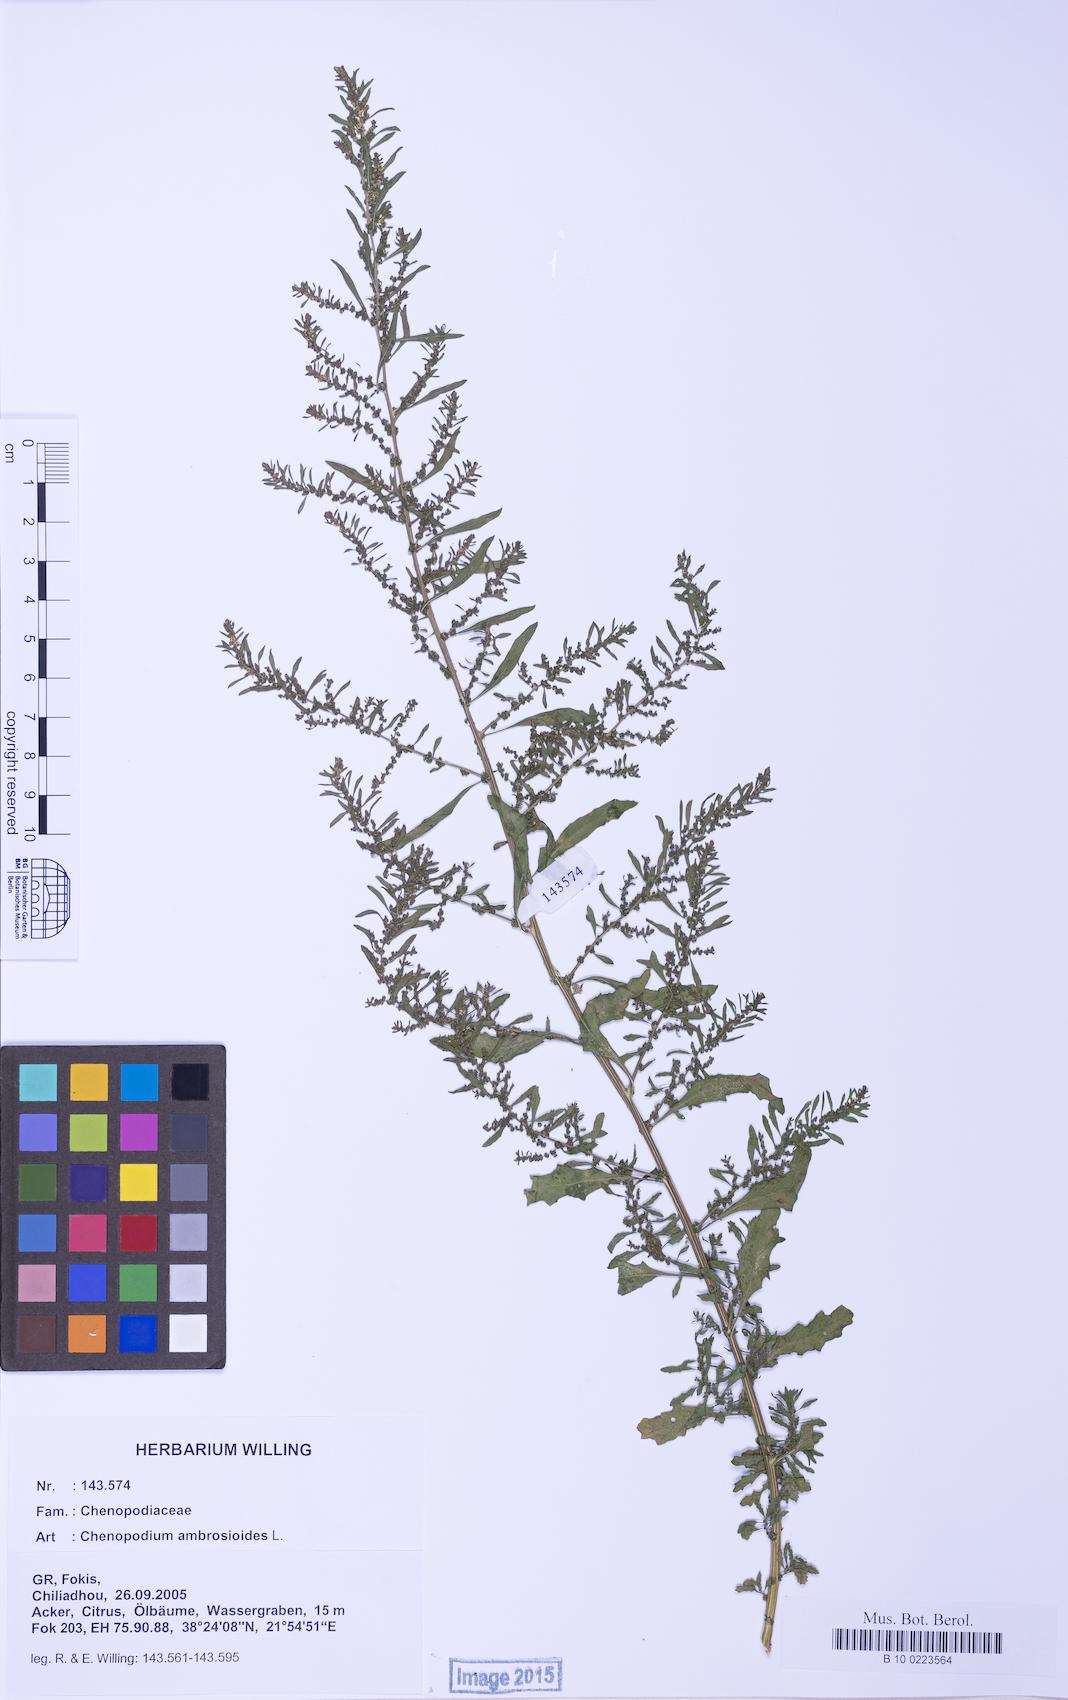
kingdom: Plantae
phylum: Tracheophyta
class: Magnoliopsida
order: Caryophyllales
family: Amaranthaceae
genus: Dysphania
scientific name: Dysphania ambrosioides
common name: Wormseed
